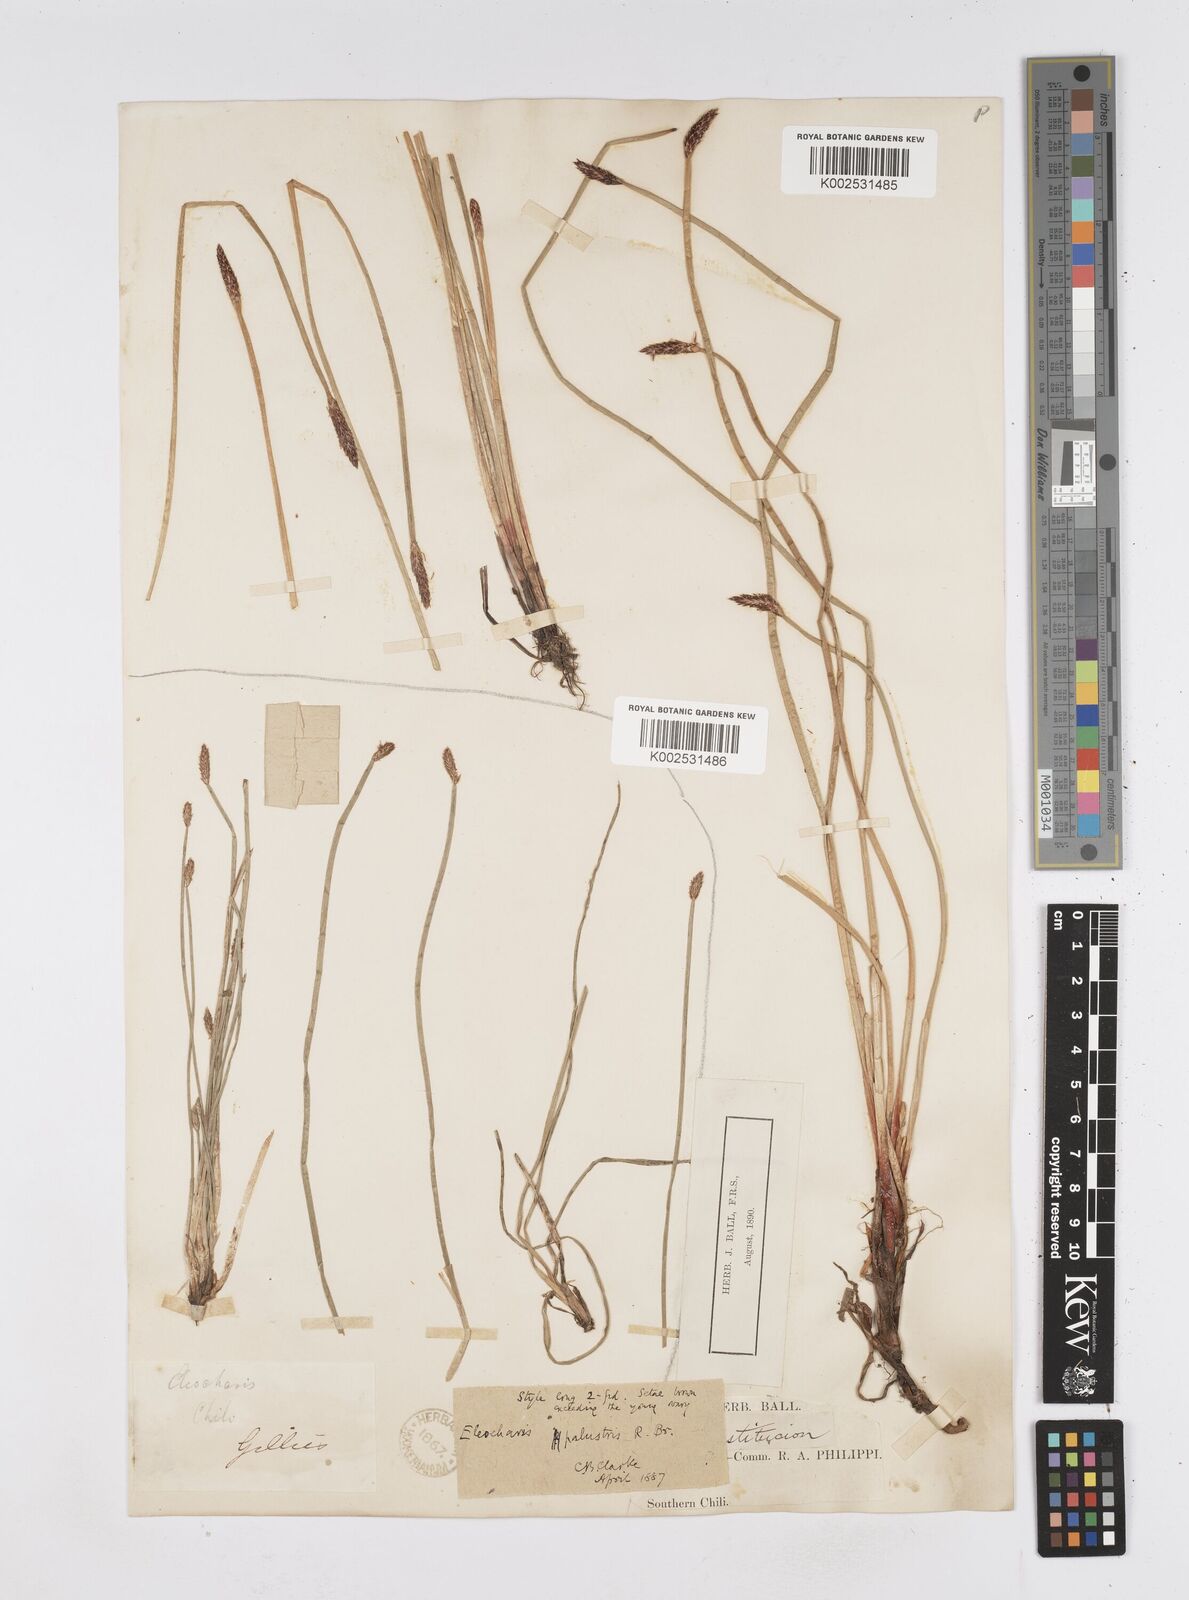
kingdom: Plantae
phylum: Tracheophyta
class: Liliopsida
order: Poales
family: Cyperaceae
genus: Eleocharis
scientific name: Eleocharis palustris
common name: Common spike-rush
